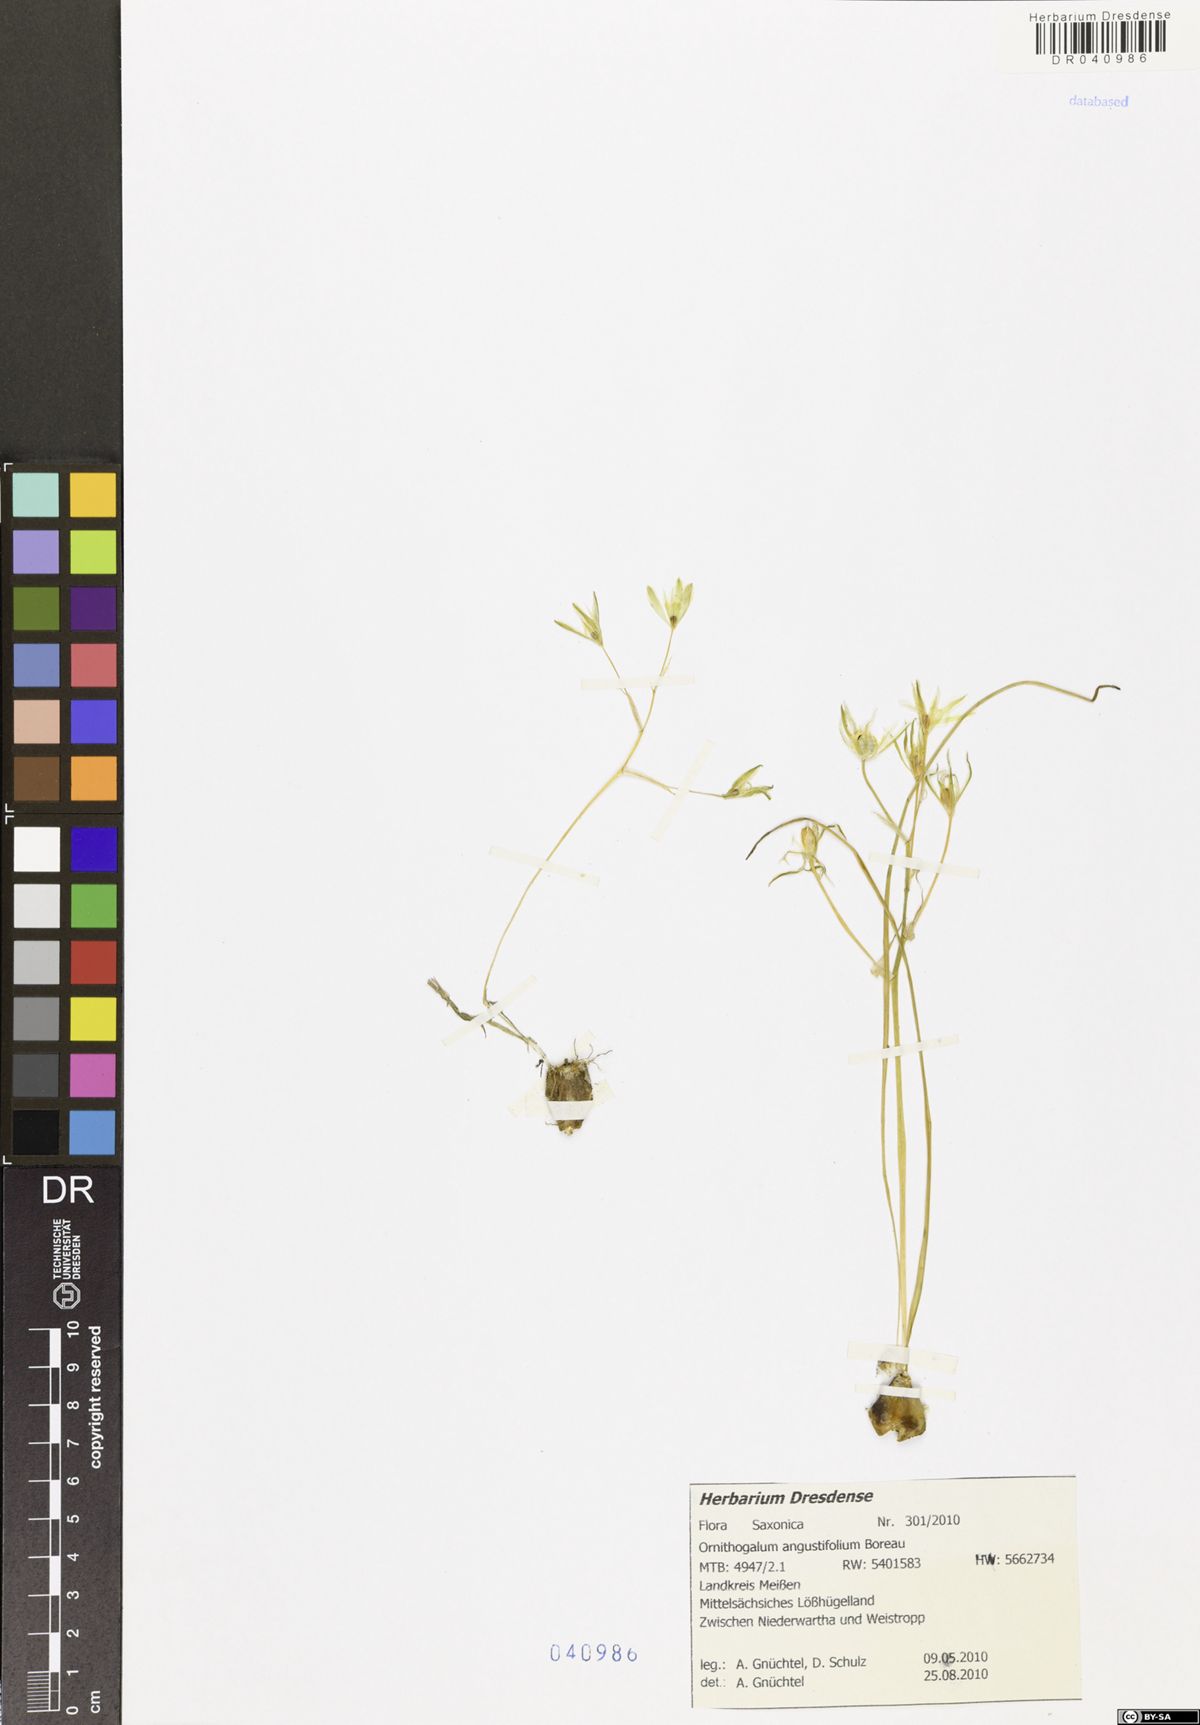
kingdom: Plantae
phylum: Tracheophyta
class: Liliopsida
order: Asparagales
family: Asparagaceae
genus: Ornithogalum
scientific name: Ornithogalum umbellatum
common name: Garden star-of-bethlehem
